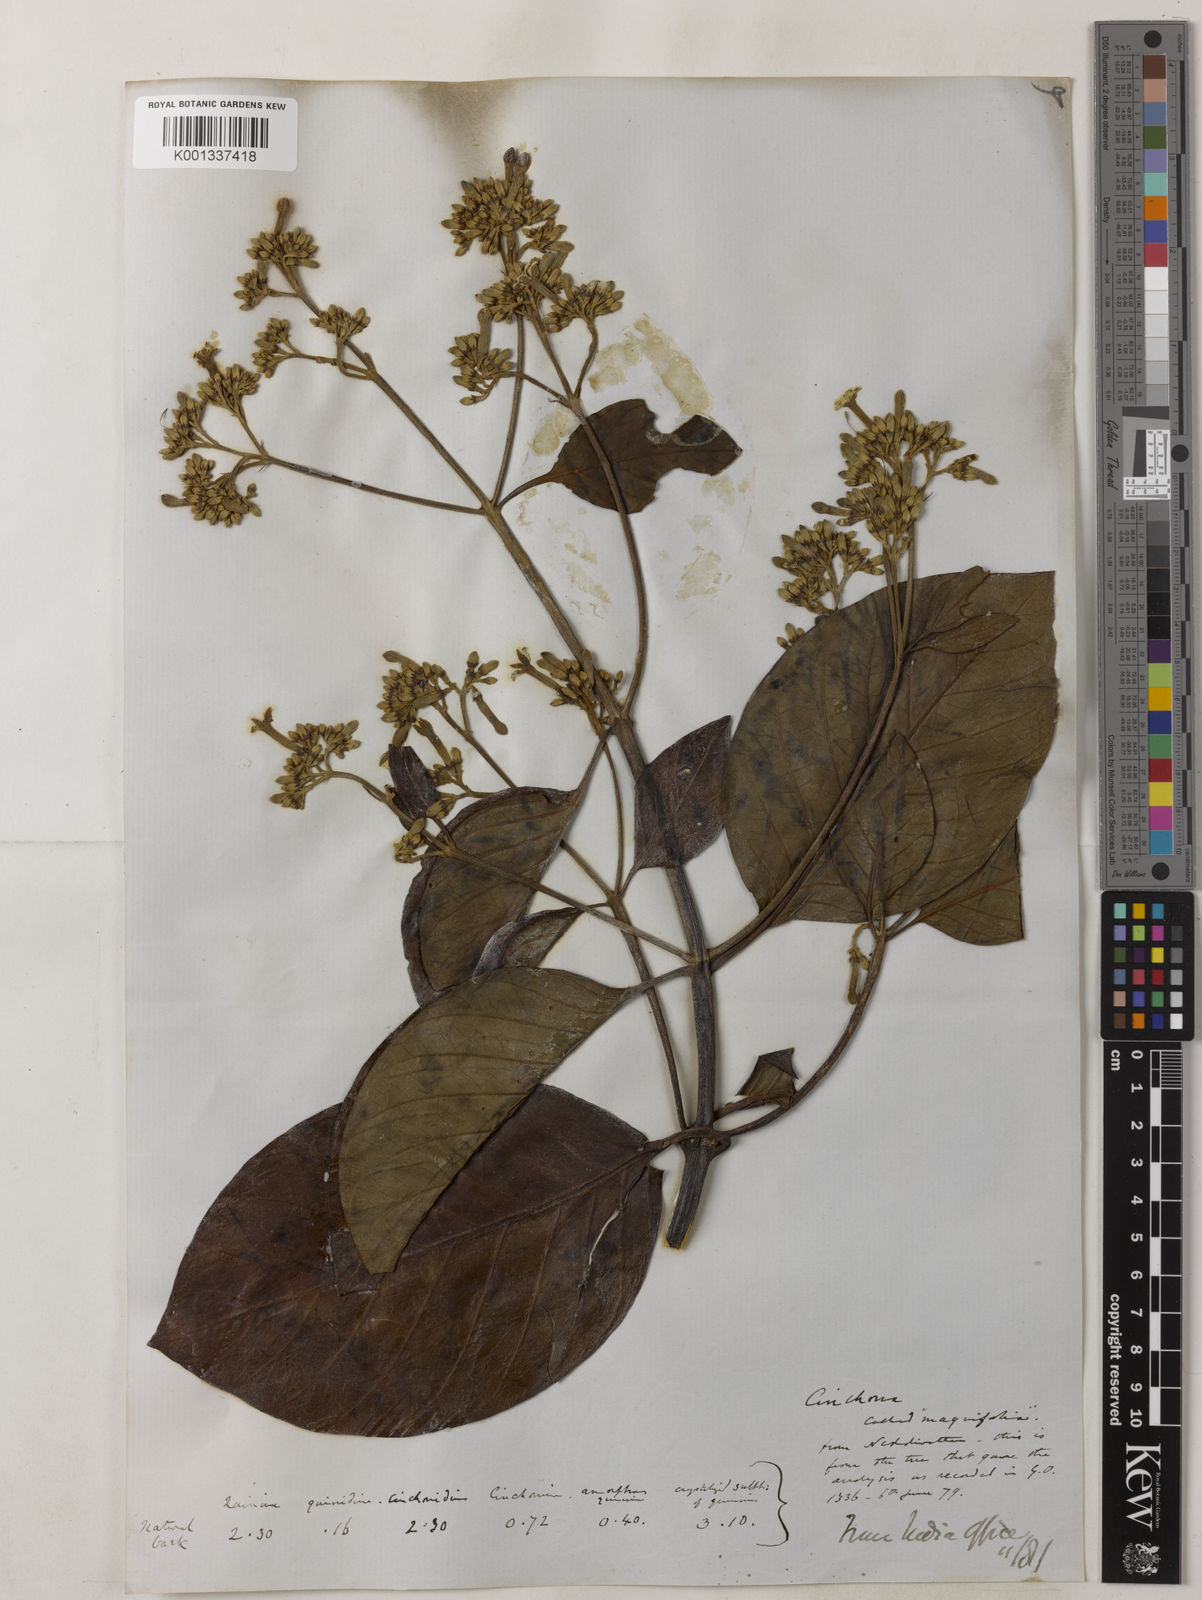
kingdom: Plantae
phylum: Tracheophyta
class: Magnoliopsida
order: Gentianales
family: Rubiaceae
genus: Cinchona
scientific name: Cinchona pubescens
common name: Quinine
